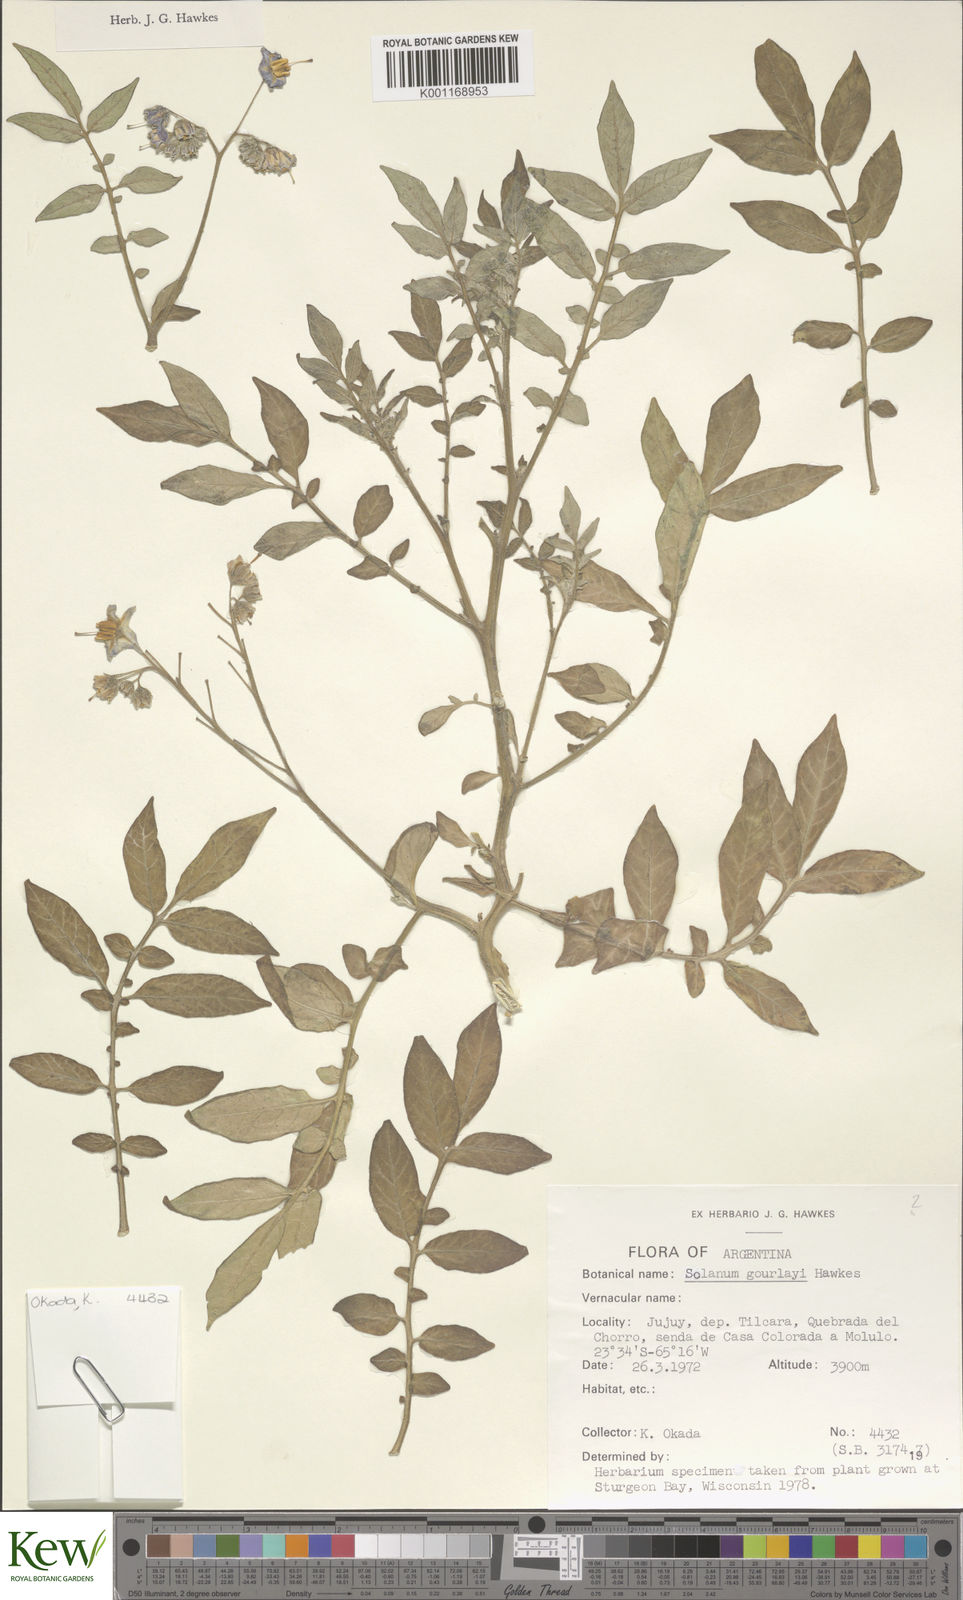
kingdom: Plantae
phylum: Tracheophyta
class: Magnoliopsida
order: Solanales
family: Solanaceae
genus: Solanum
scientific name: Solanum brevicaule
